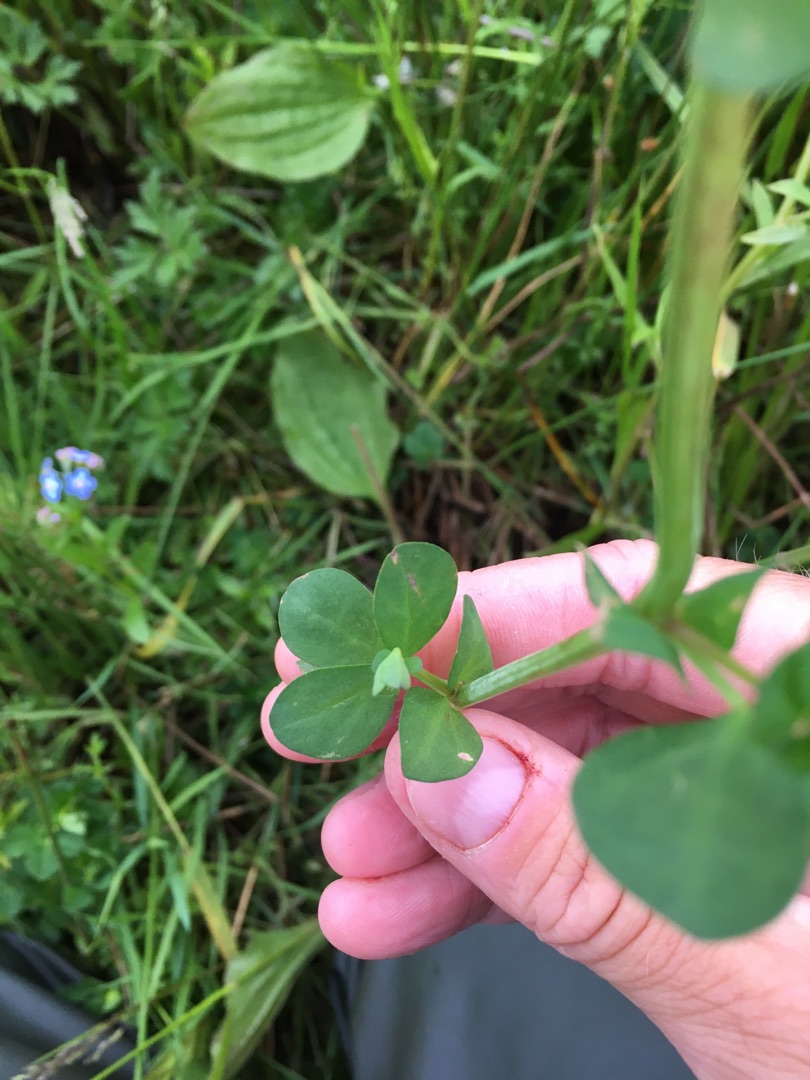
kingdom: Plantae
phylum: Tracheophyta
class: Magnoliopsida
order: Fabales
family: Fabaceae
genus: Lotus
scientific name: Lotus pedunculatus
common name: Sump-kællingetand
